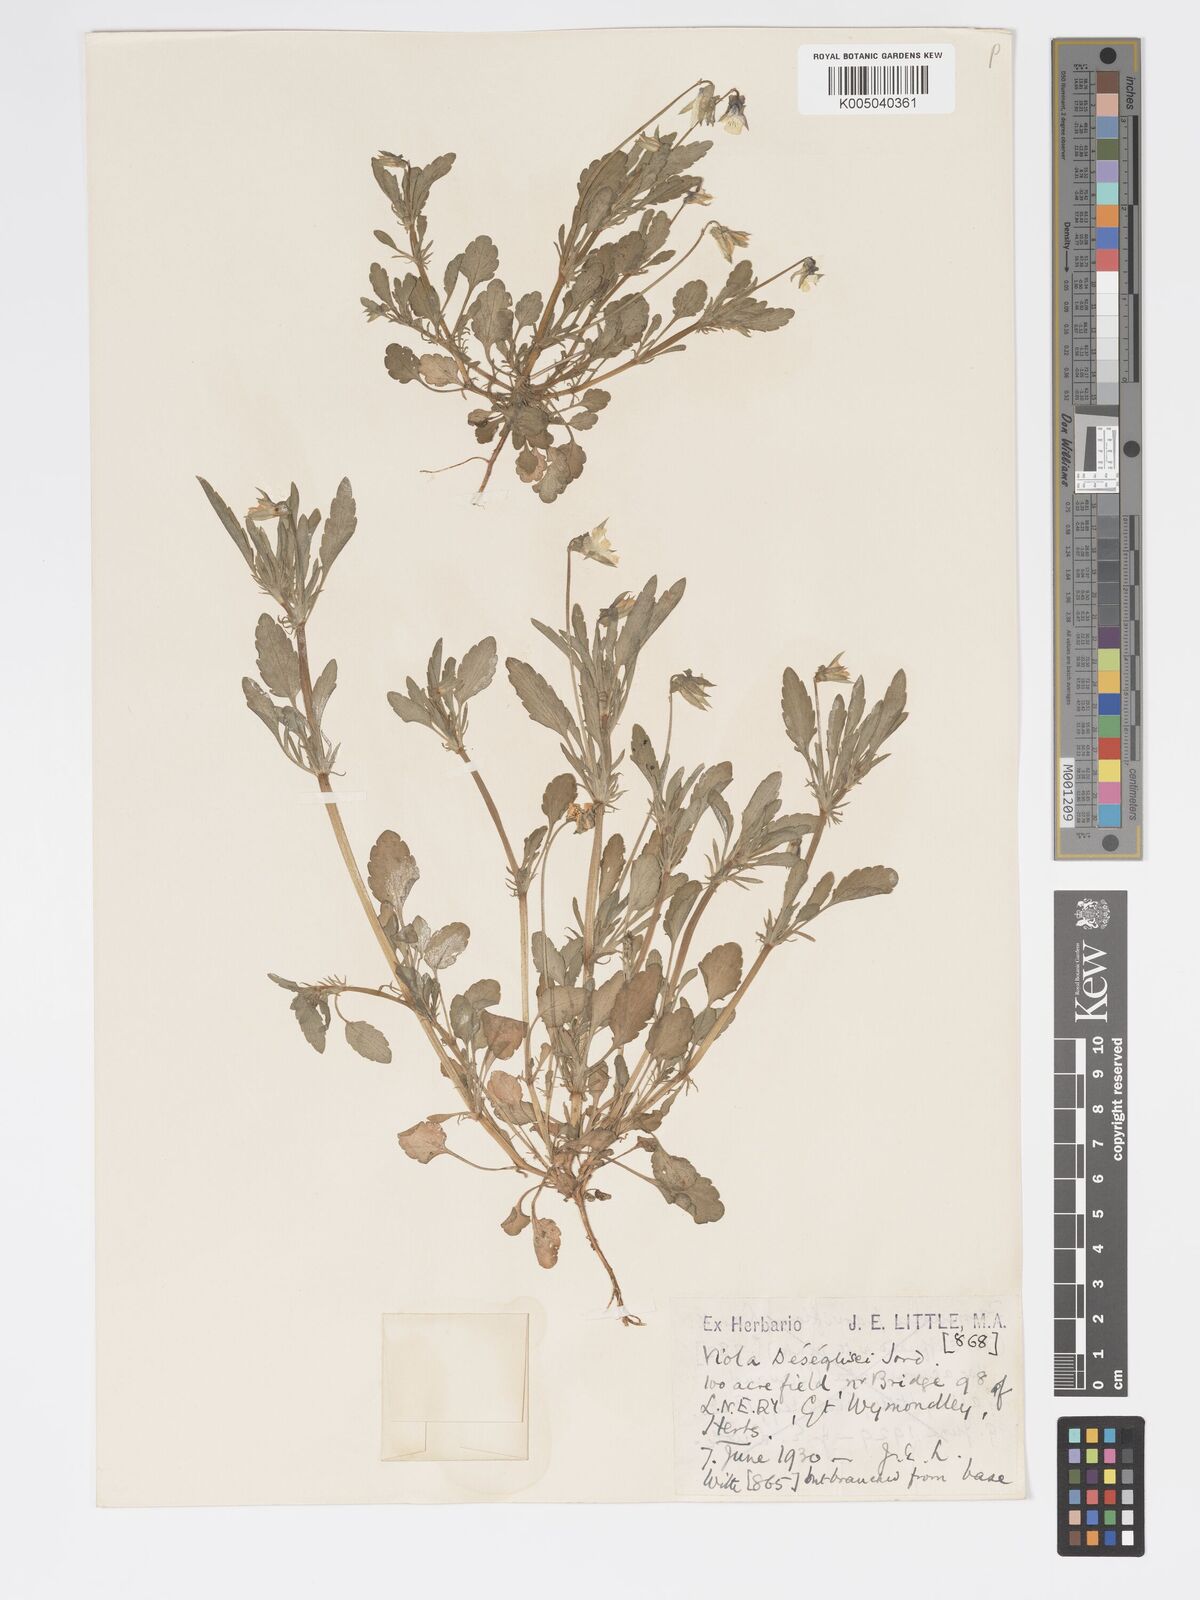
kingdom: Plantae
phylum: Tracheophyta
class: Magnoliopsida
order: Malpighiales
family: Violaceae
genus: Viola
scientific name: Viola arvensis
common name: Field pansy
